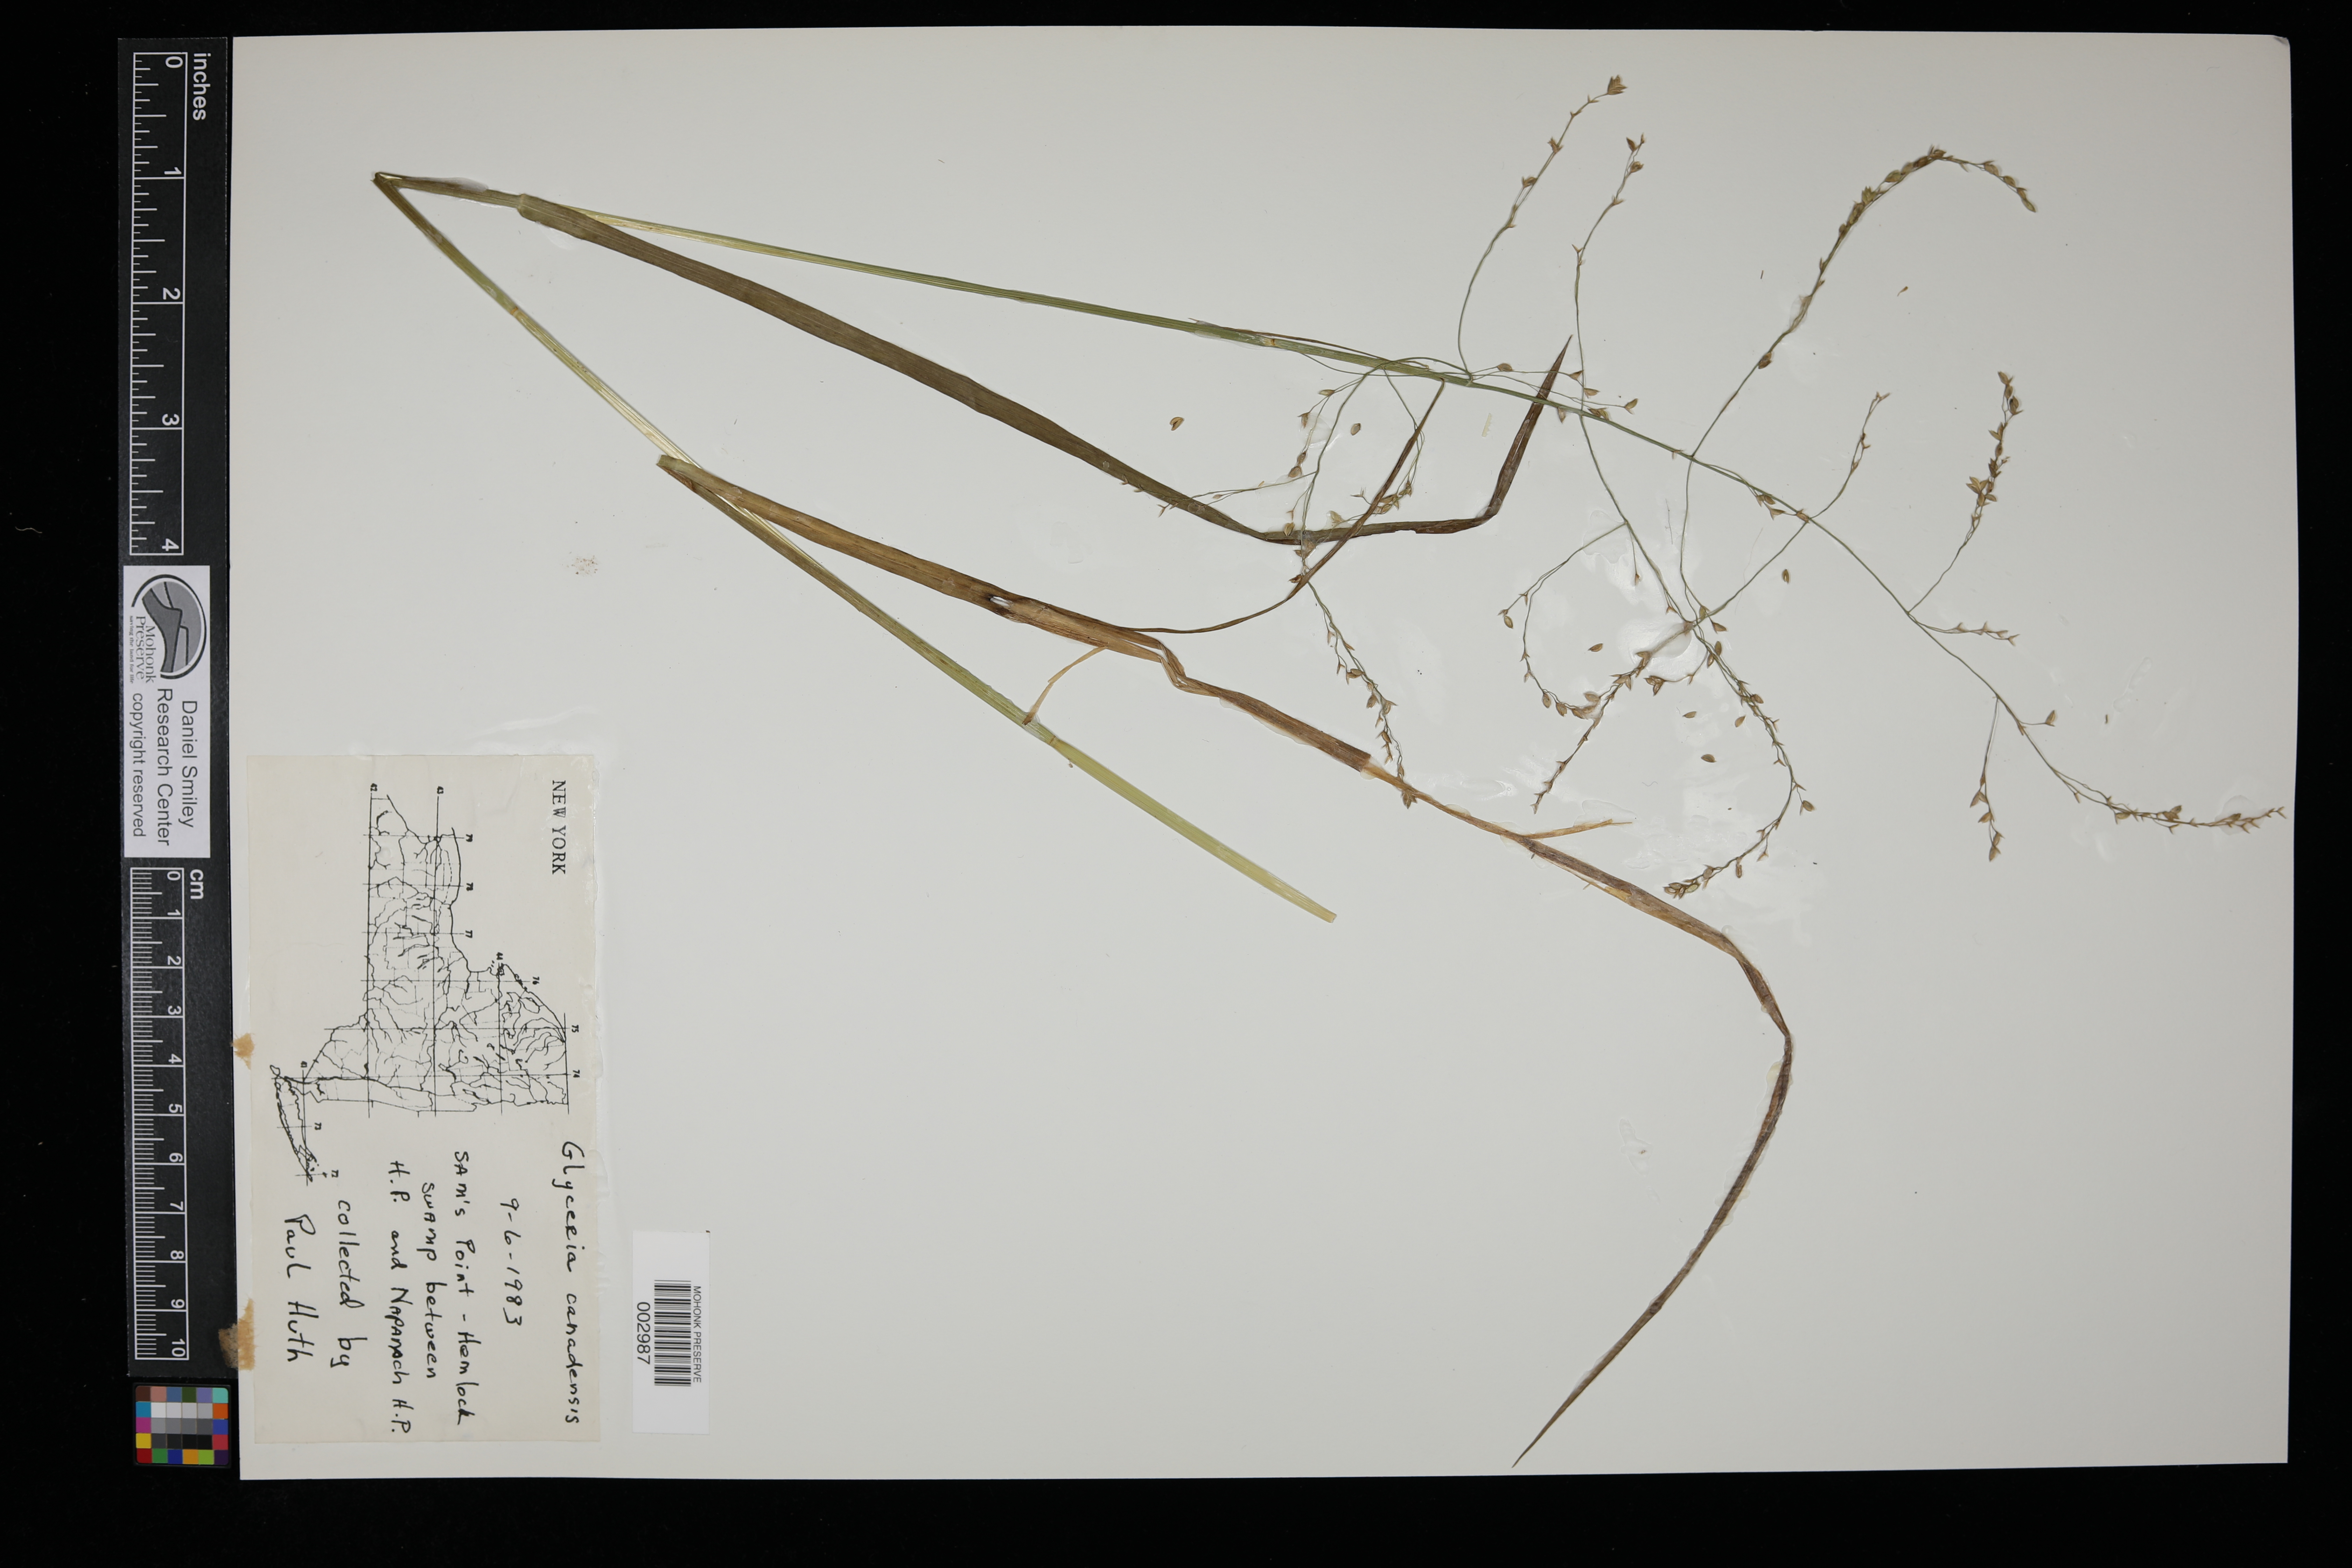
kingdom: Plantae
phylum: Tracheophyta
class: Liliopsida
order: Poales
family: Poaceae
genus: Glyceria
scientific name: Glyceria canadensis
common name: Canada mannagrass
